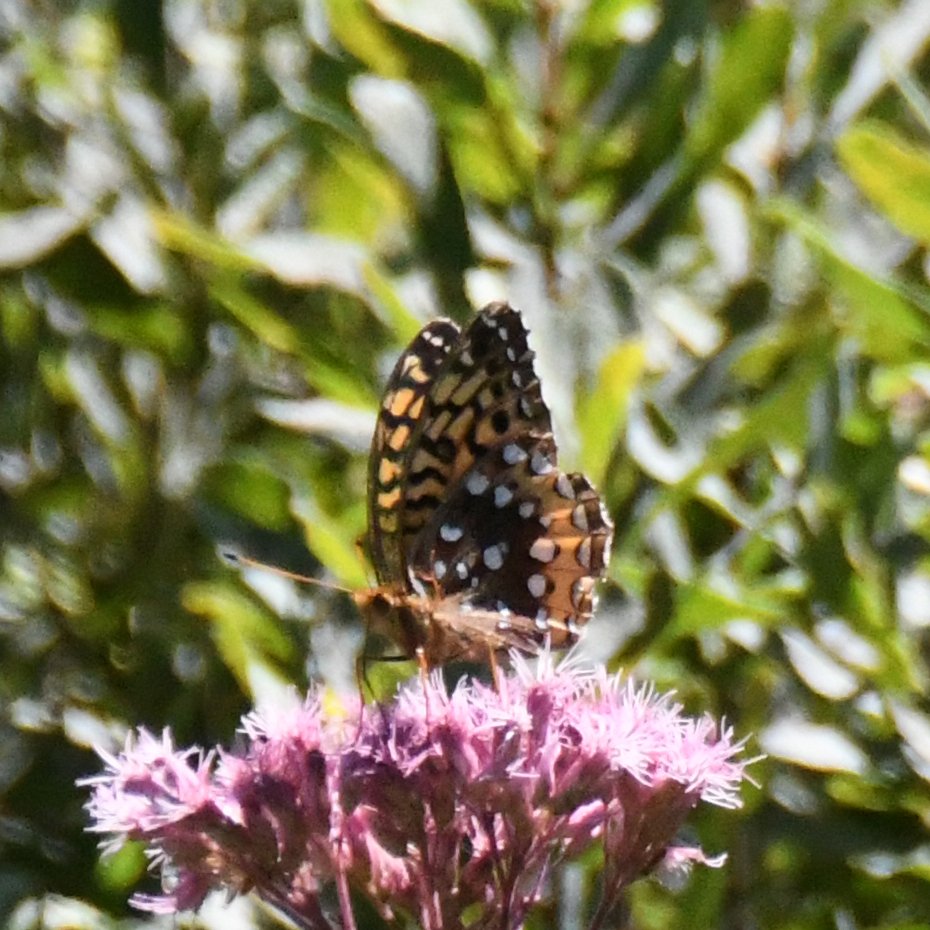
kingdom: Animalia
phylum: Arthropoda
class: Insecta
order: Lepidoptera
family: Nymphalidae
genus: Speyeria
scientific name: Speyeria cybele
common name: Great Spangled Fritillary
